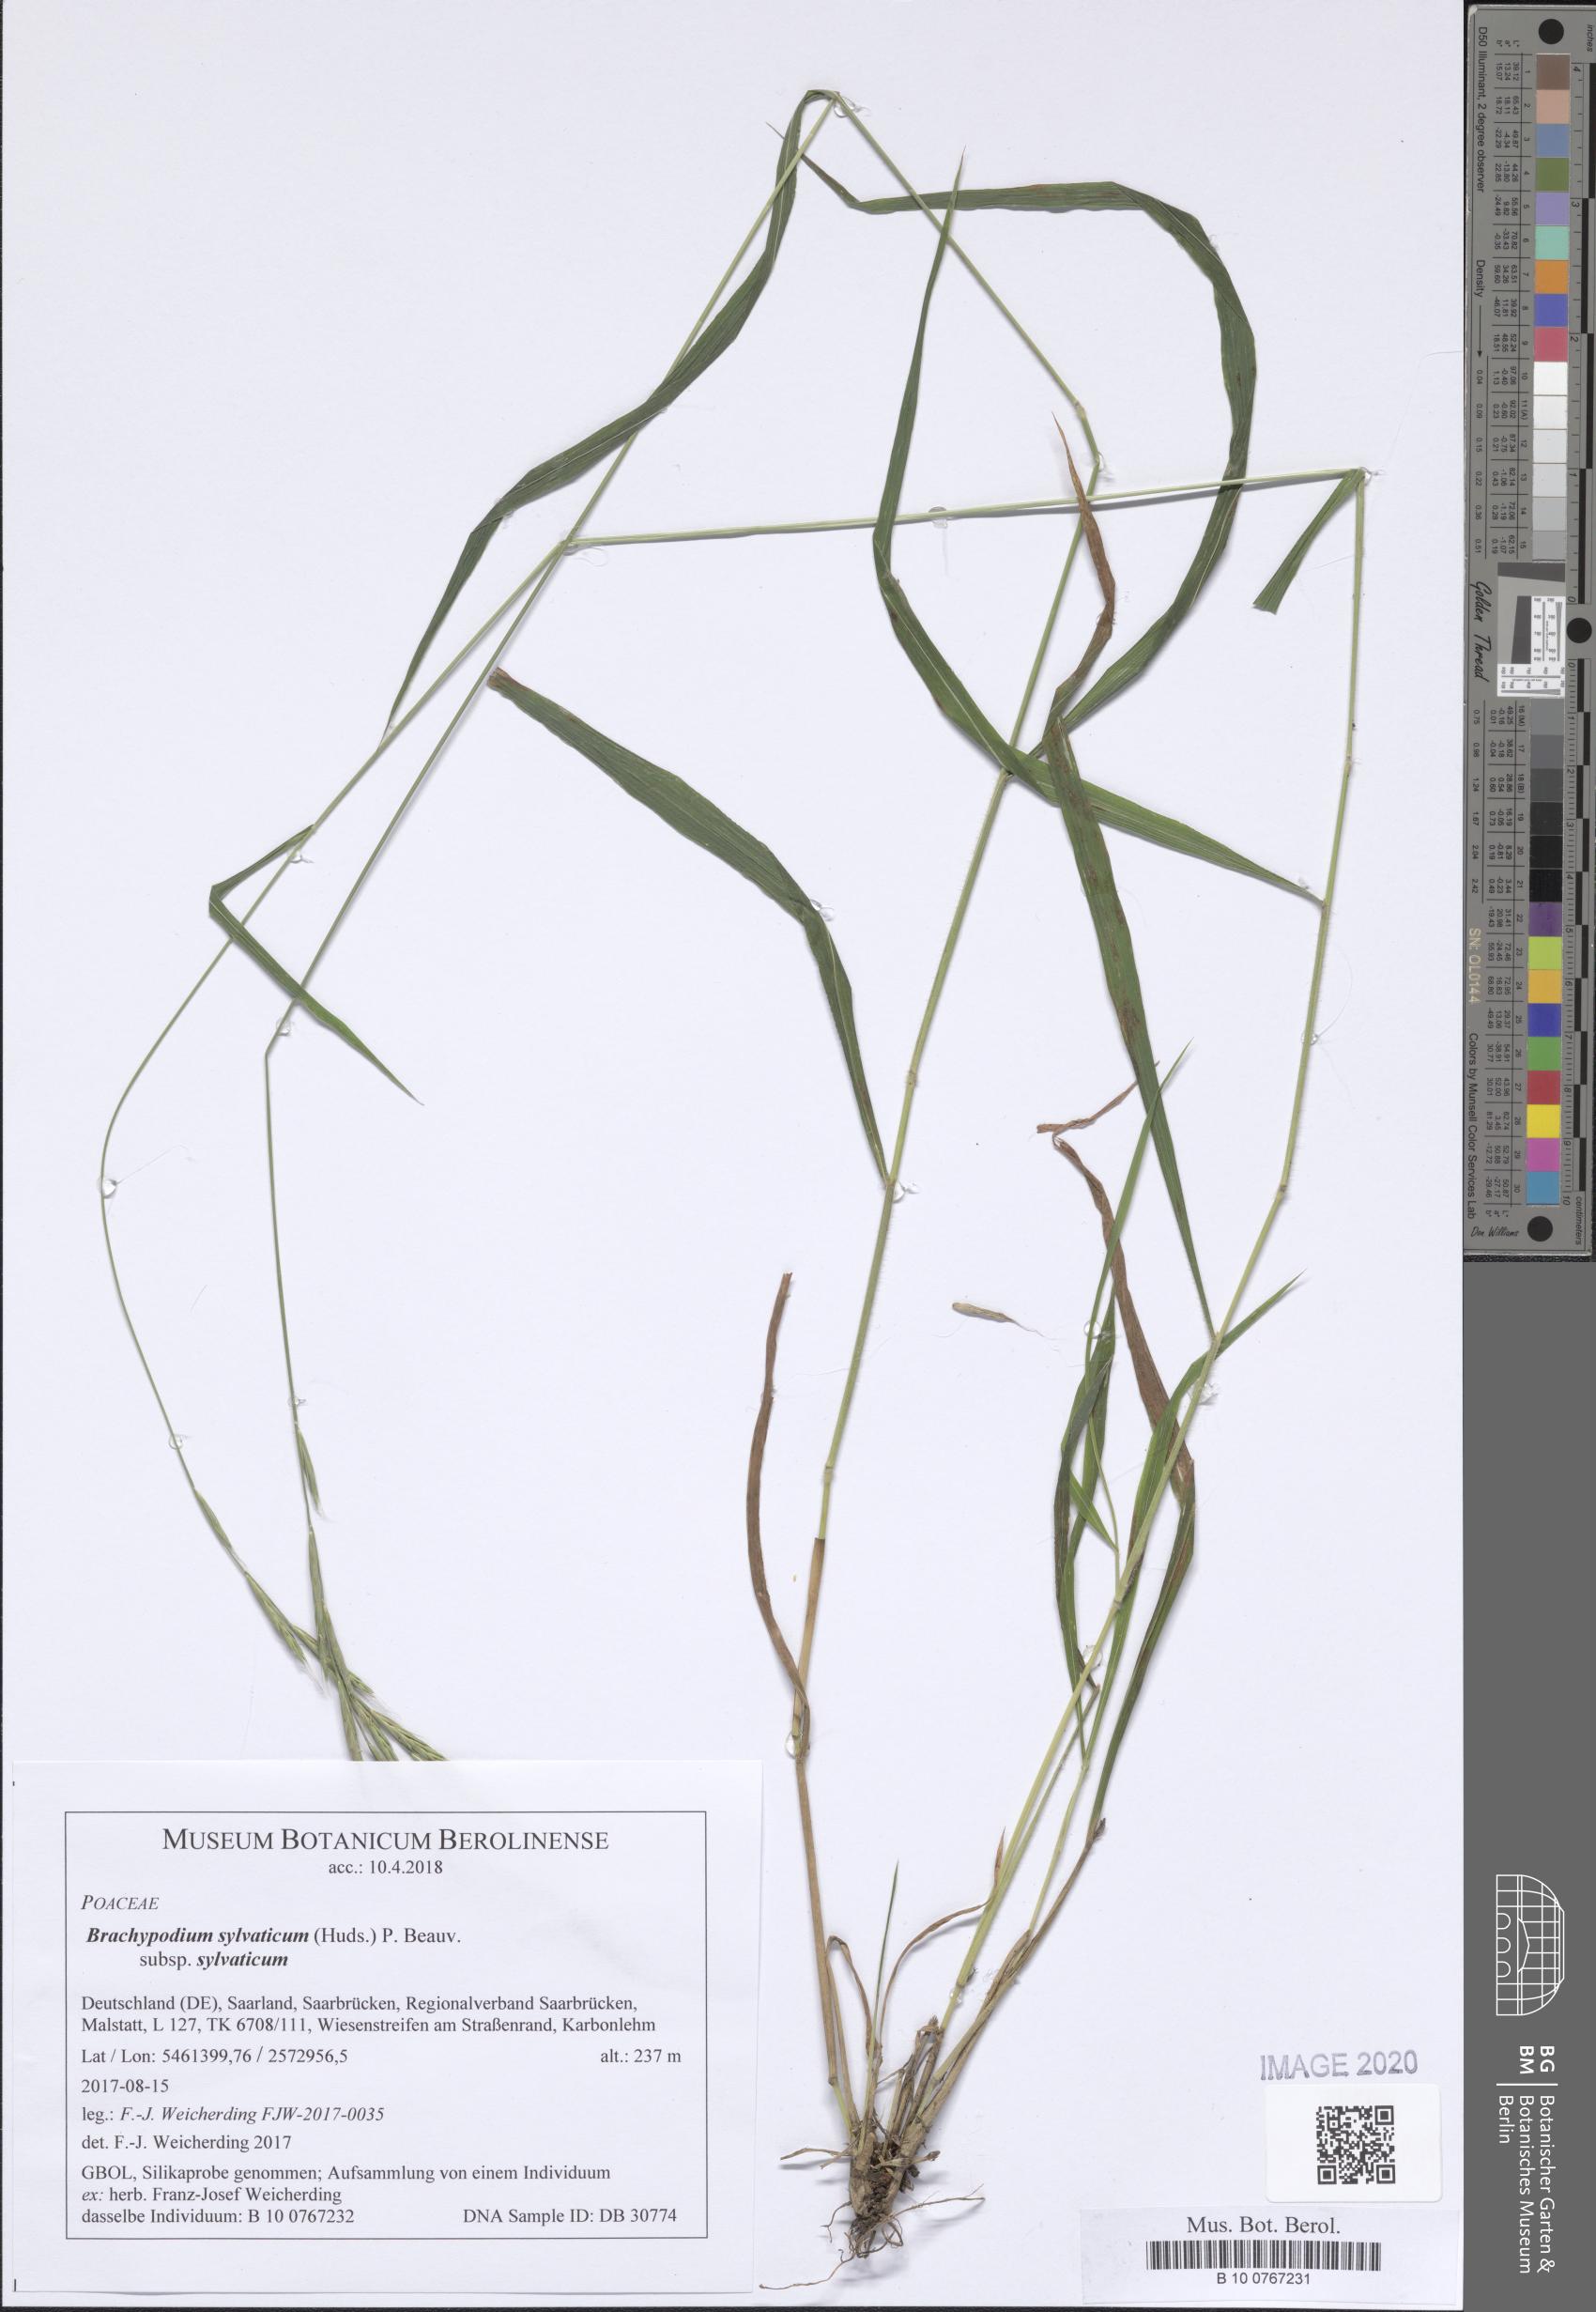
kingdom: Plantae
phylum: Tracheophyta
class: Liliopsida
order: Poales
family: Poaceae
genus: Brachypodium
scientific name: Brachypodium sylvaticum
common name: False-brome
